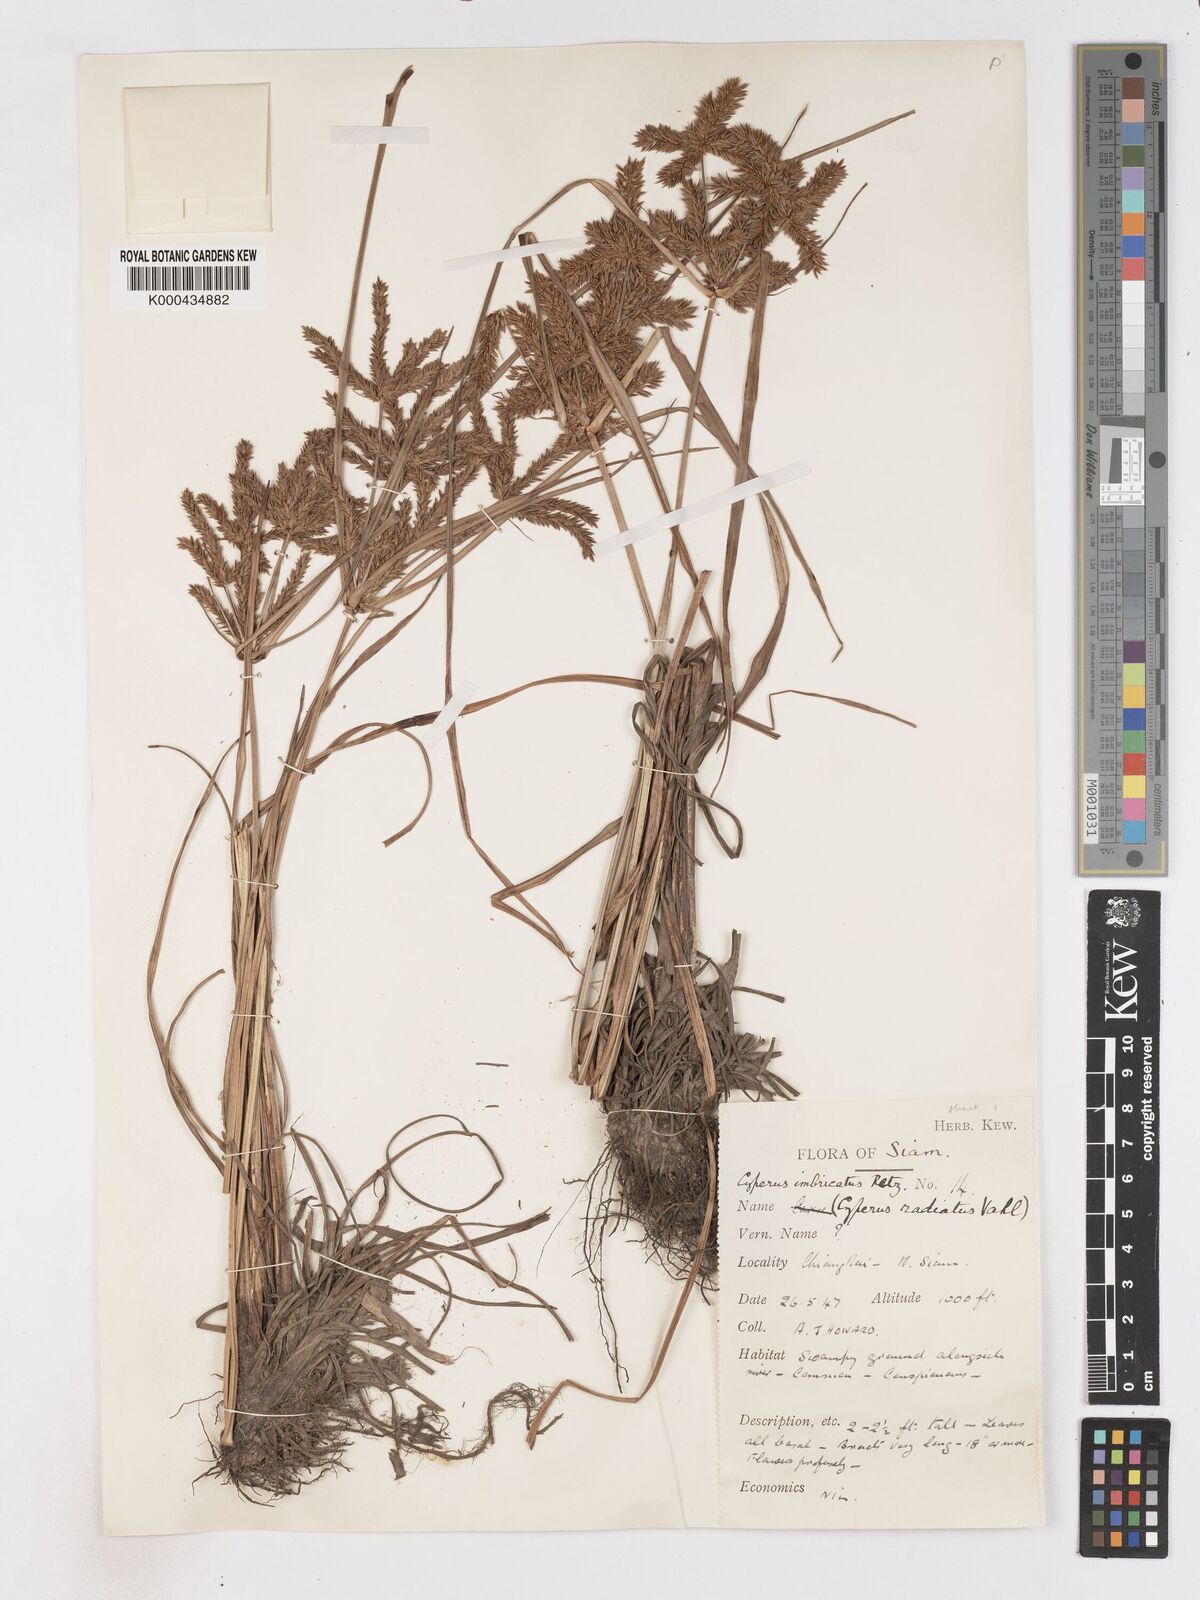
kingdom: Plantae
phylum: Tracheophyta
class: Liliopsida
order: Poales
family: Cyperaceae
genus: Cyperus
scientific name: Cyperus imbricatus
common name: Shingle flatsedge
